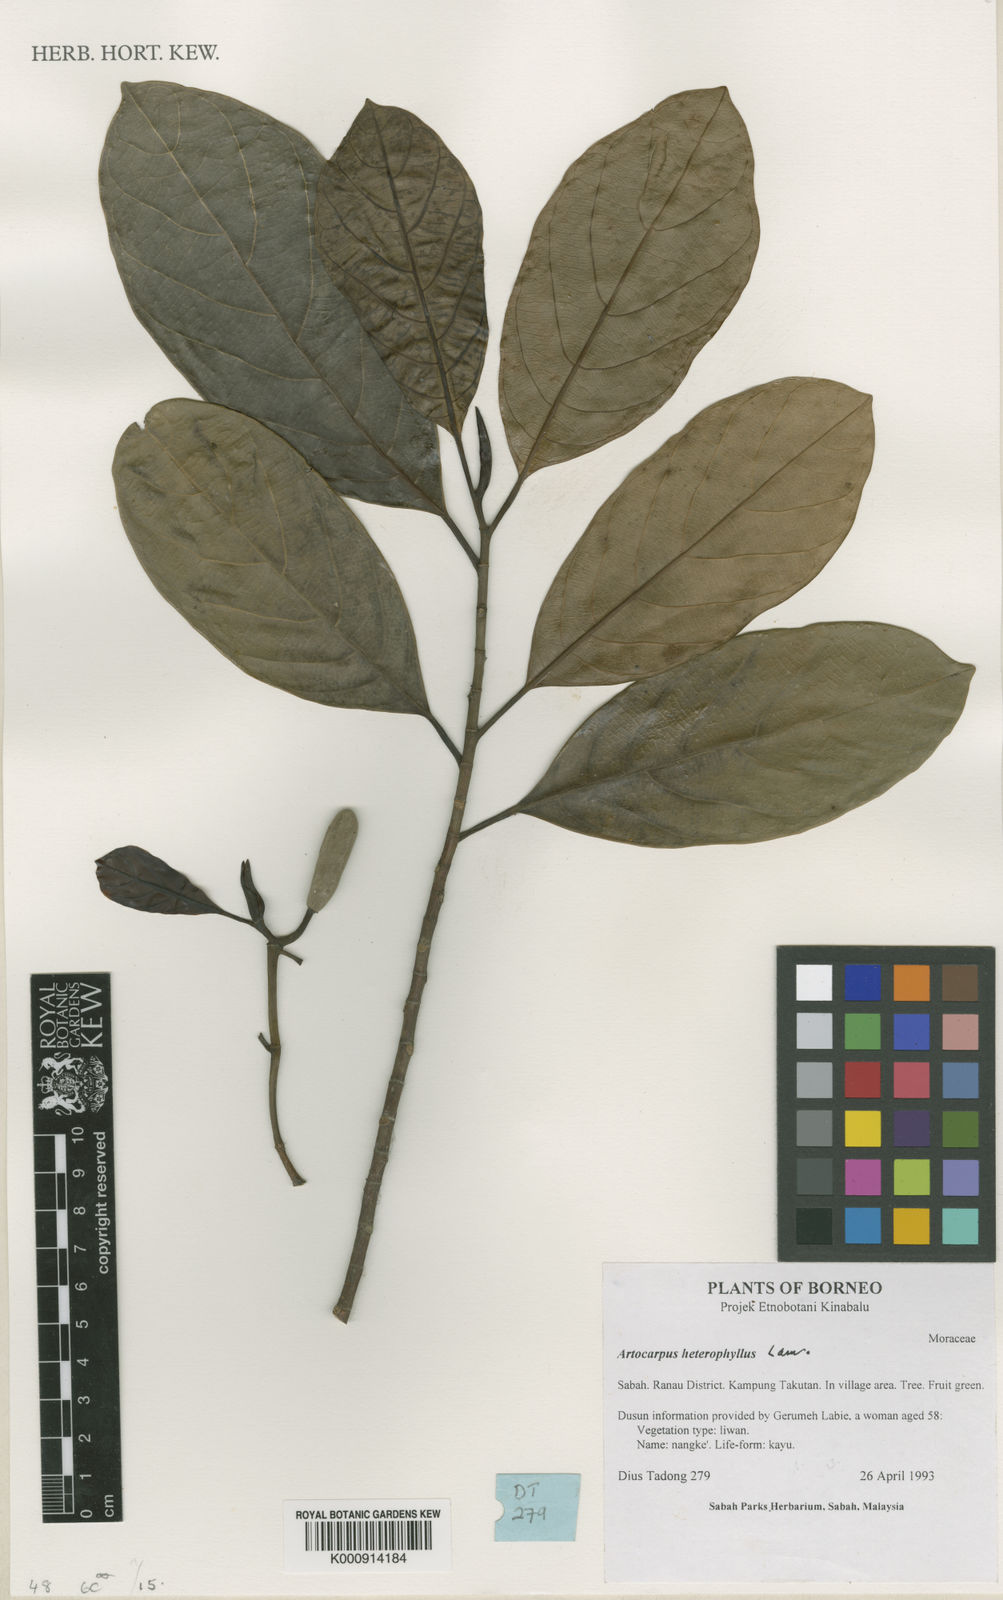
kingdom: Plantae
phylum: Tracheophyta
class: Magnoliopsida
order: Rosales
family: Moraceae
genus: Artocarpus
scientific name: Artocarpus heterophyllus
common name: Jackfruit
